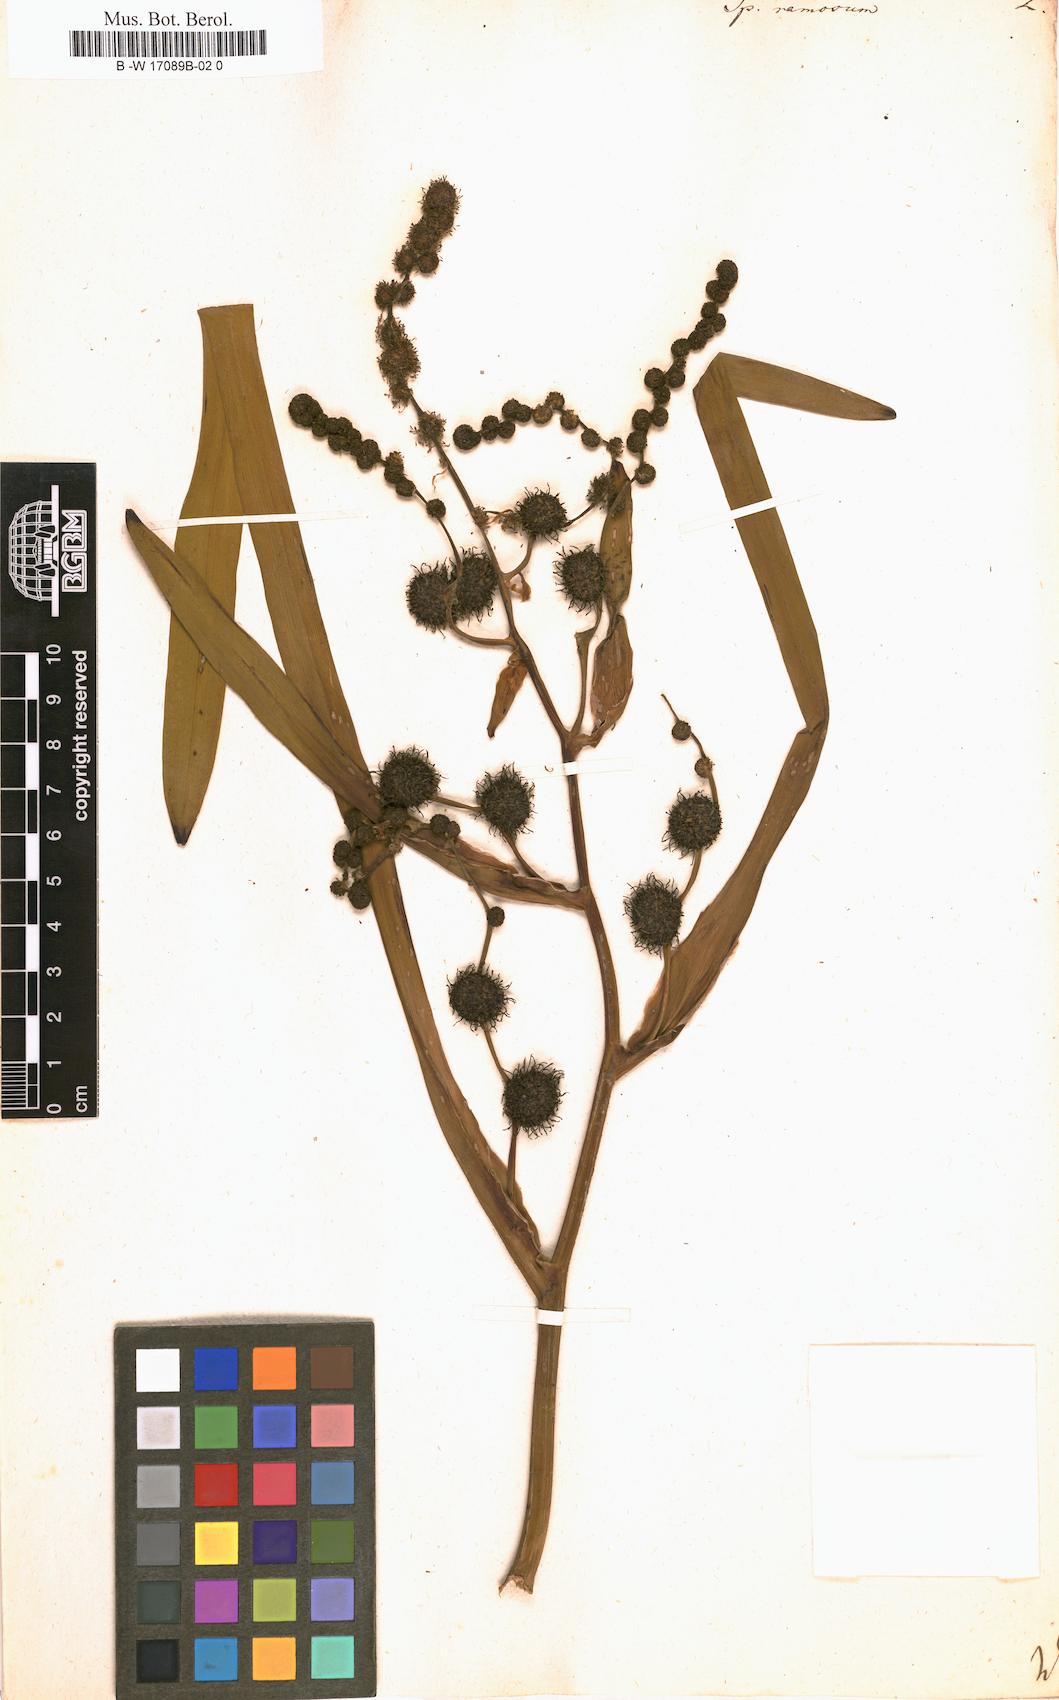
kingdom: Plantae
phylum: Tracheophyta
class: Liliopsida
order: Poales
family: Typhaceae
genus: Sparganium
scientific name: Sparganium erectum
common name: Branched bur-reed
